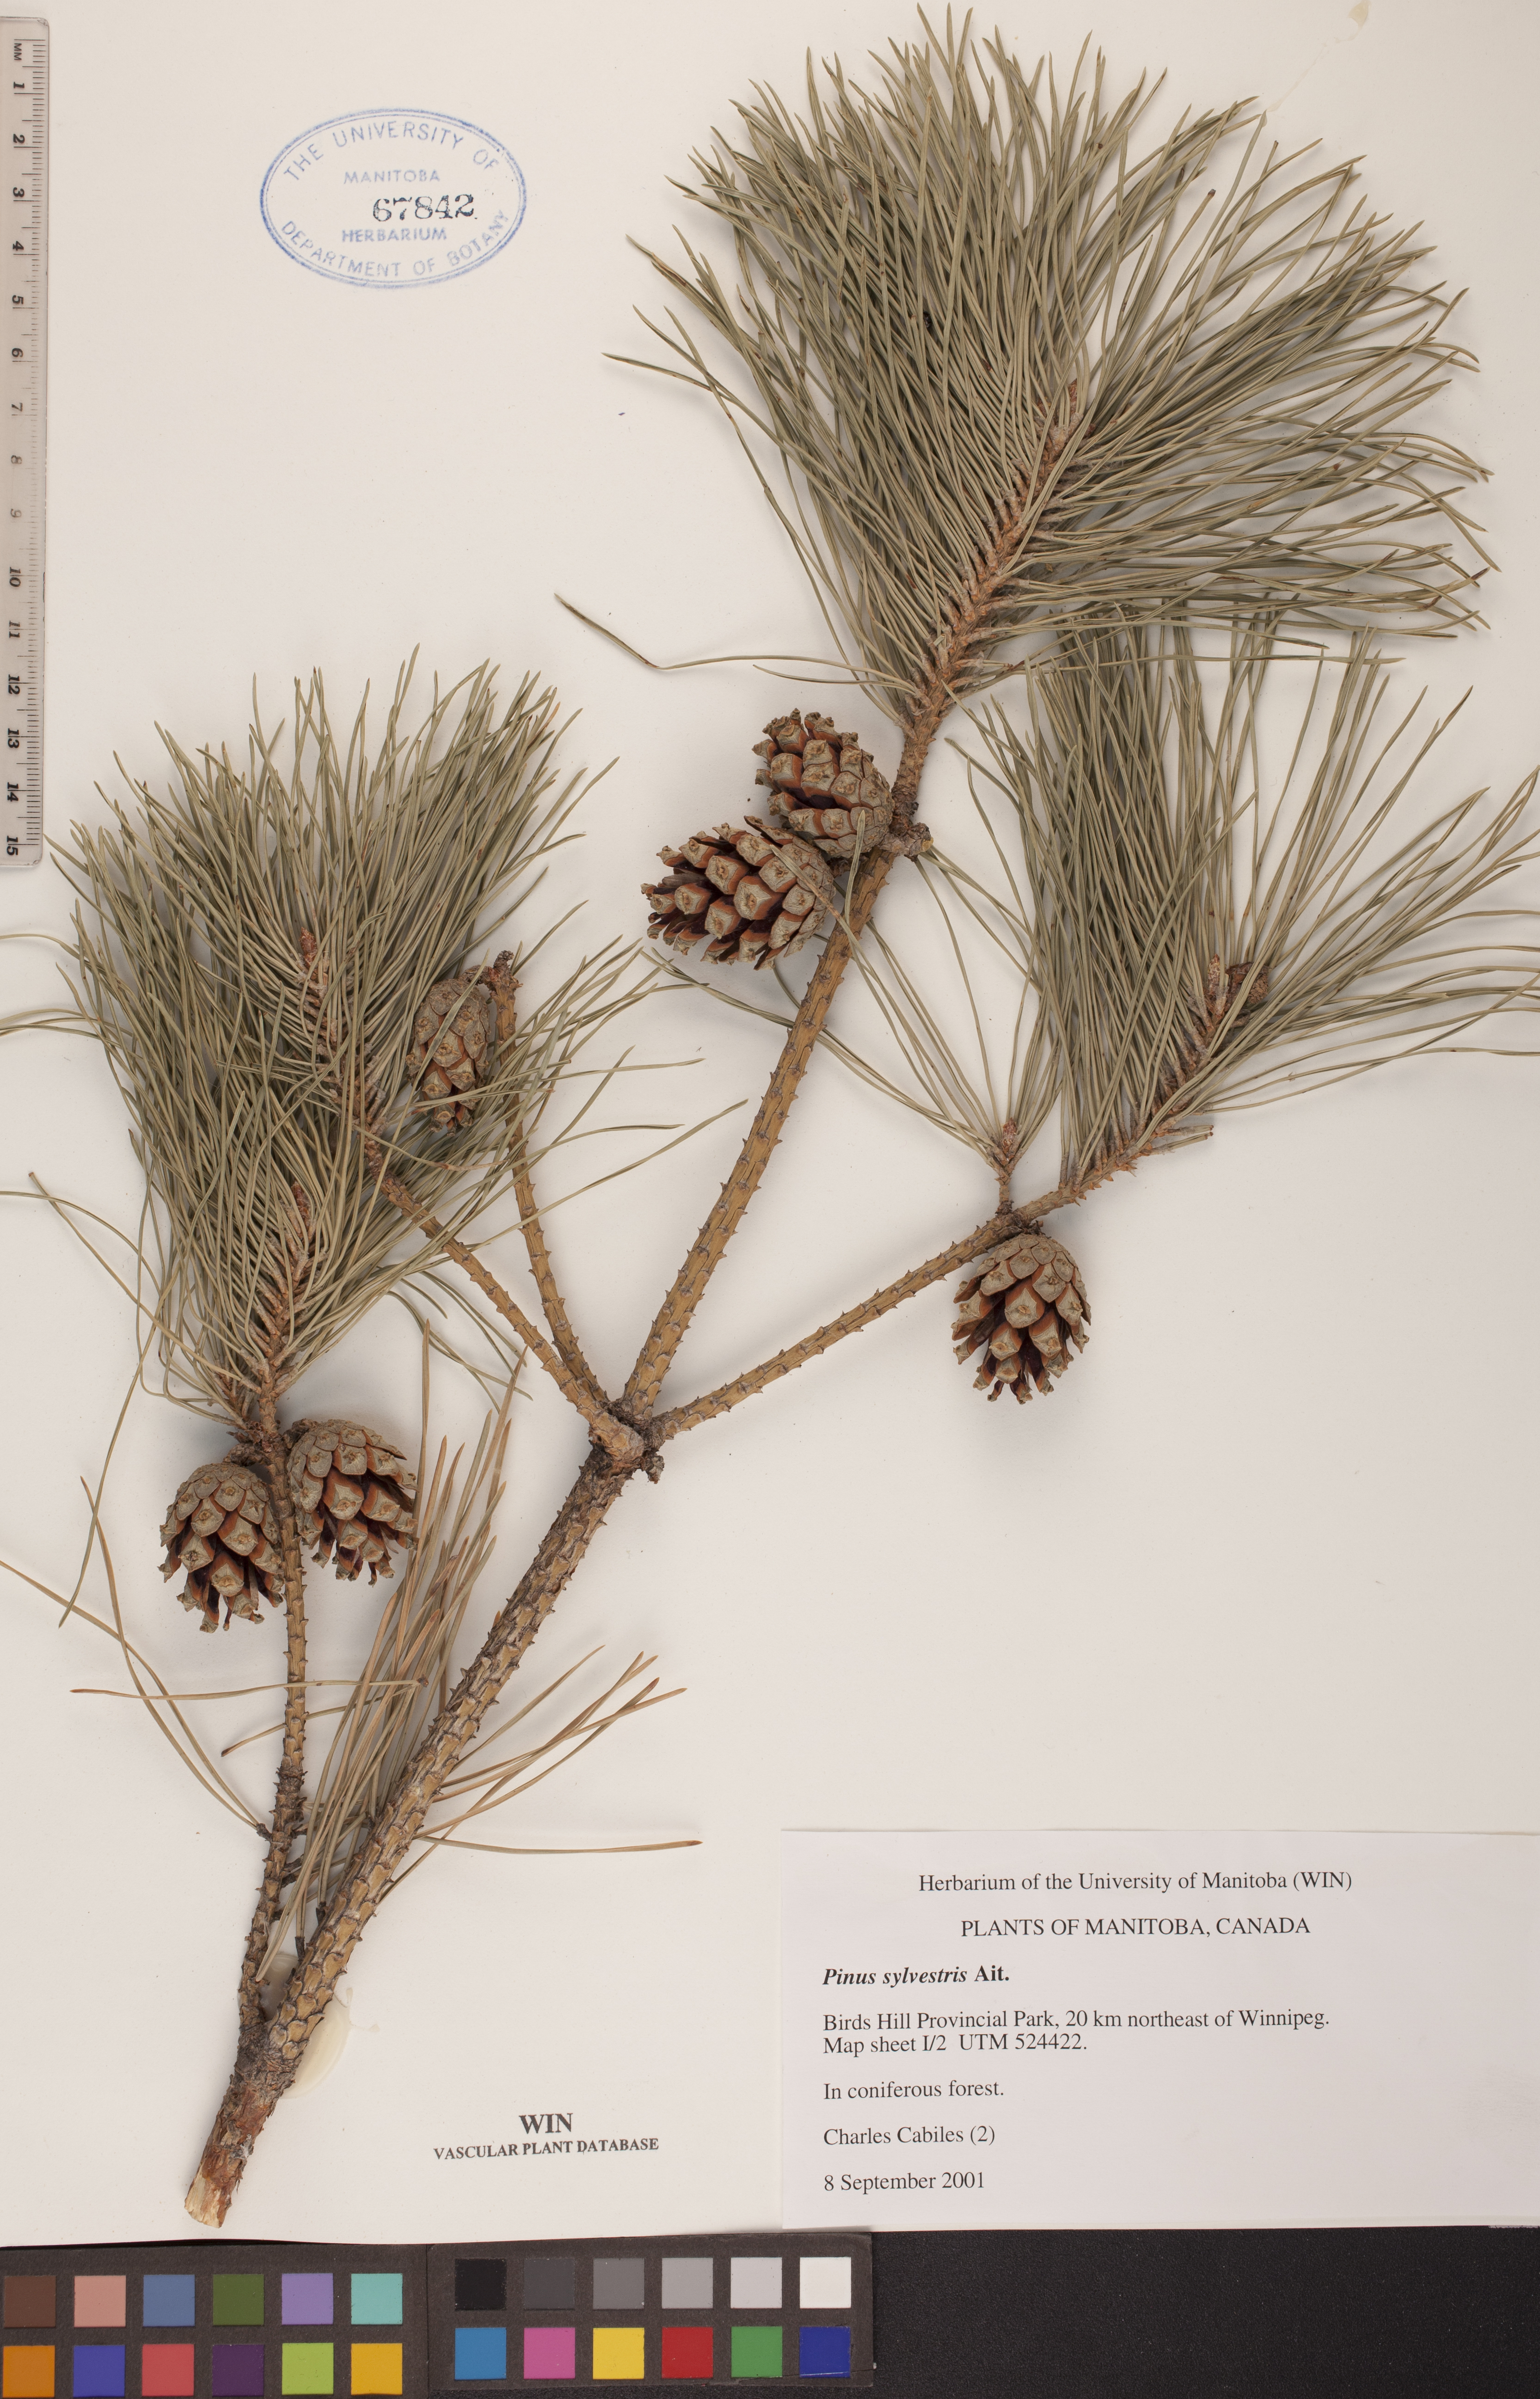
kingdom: Plantae
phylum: Tracheophyta
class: Pinopsida
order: Pinales
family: Pinaceae
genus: Pinus
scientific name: Pinus sylvestris
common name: Scots pine
